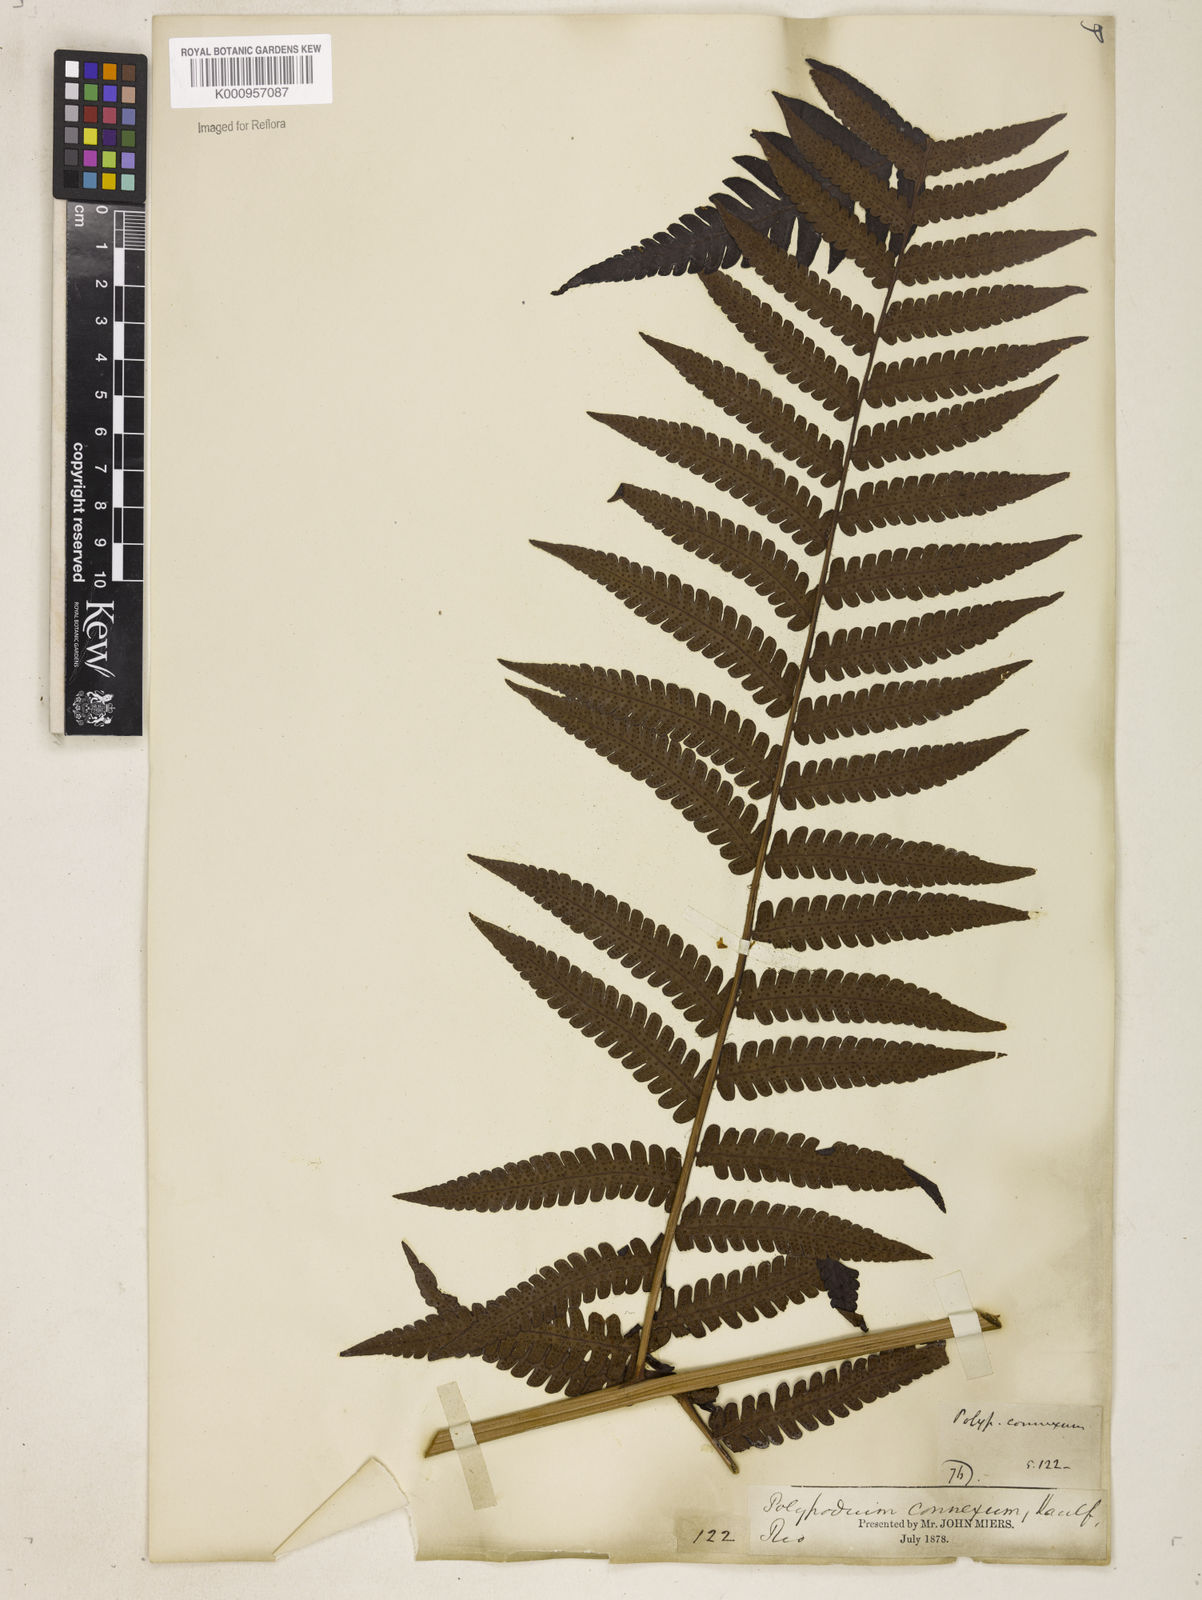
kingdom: Plantae
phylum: Tracheophyta
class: Polypodiopsida
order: Polypodiales
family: Dryopteridaceae
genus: Megalastrum
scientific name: Megalastrum connexum
